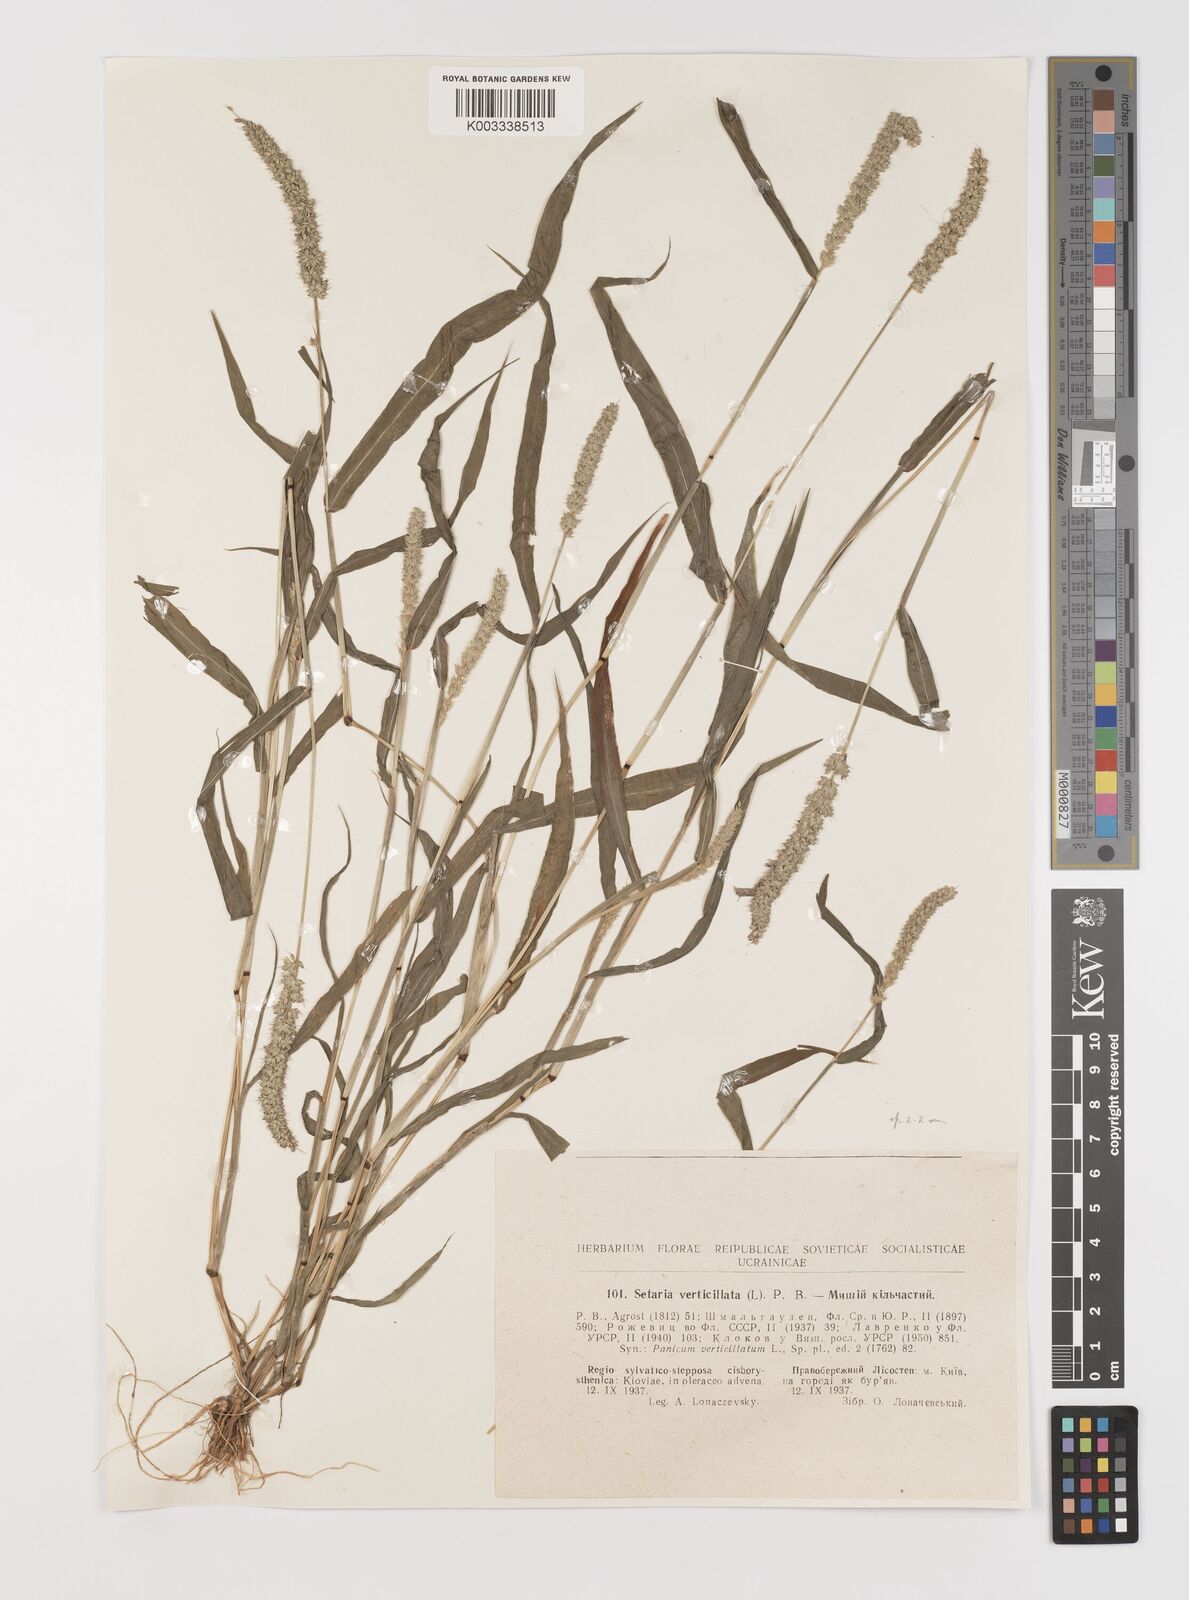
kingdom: Plantae
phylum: Tracheophyta
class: Liliopsida
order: Poales
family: Poaceae
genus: Setaria
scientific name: Setaria verticillata
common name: Hooked bristlegrass
